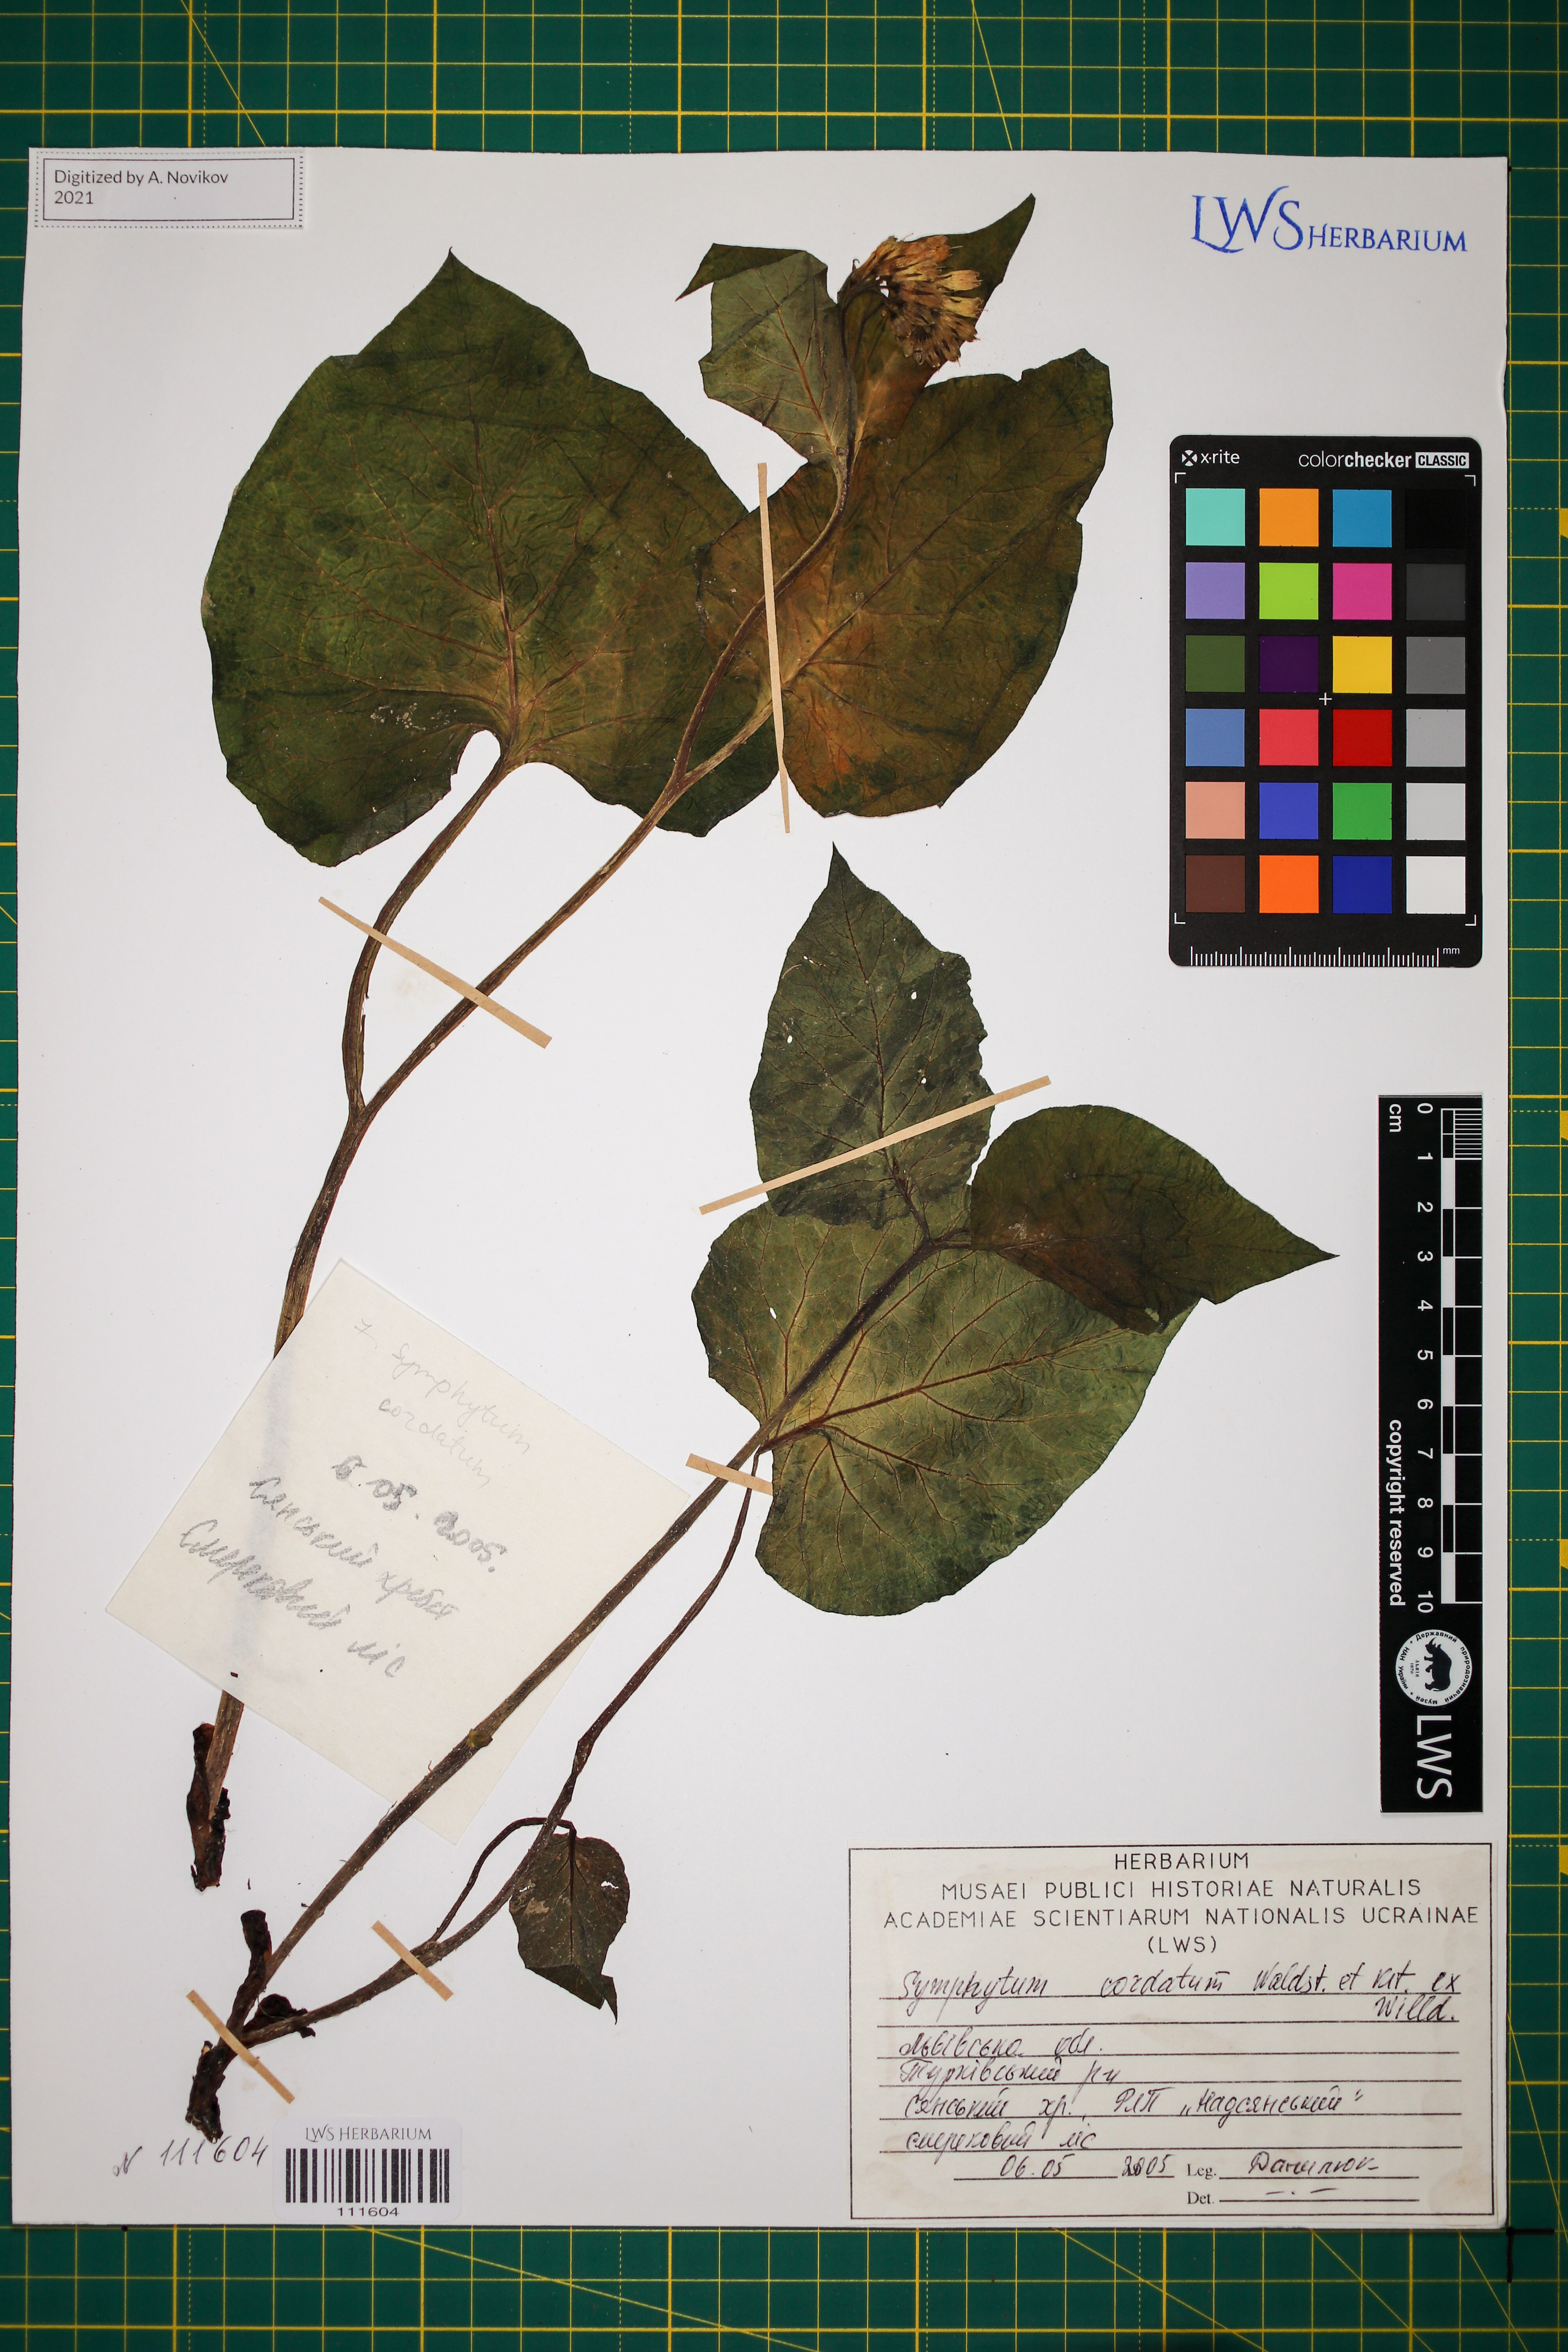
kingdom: Plantae
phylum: Tracheophyta
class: Magnoliopsida
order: Boraginales
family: Boraginaceae
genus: Symphytum
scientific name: Symphytum cordatum
